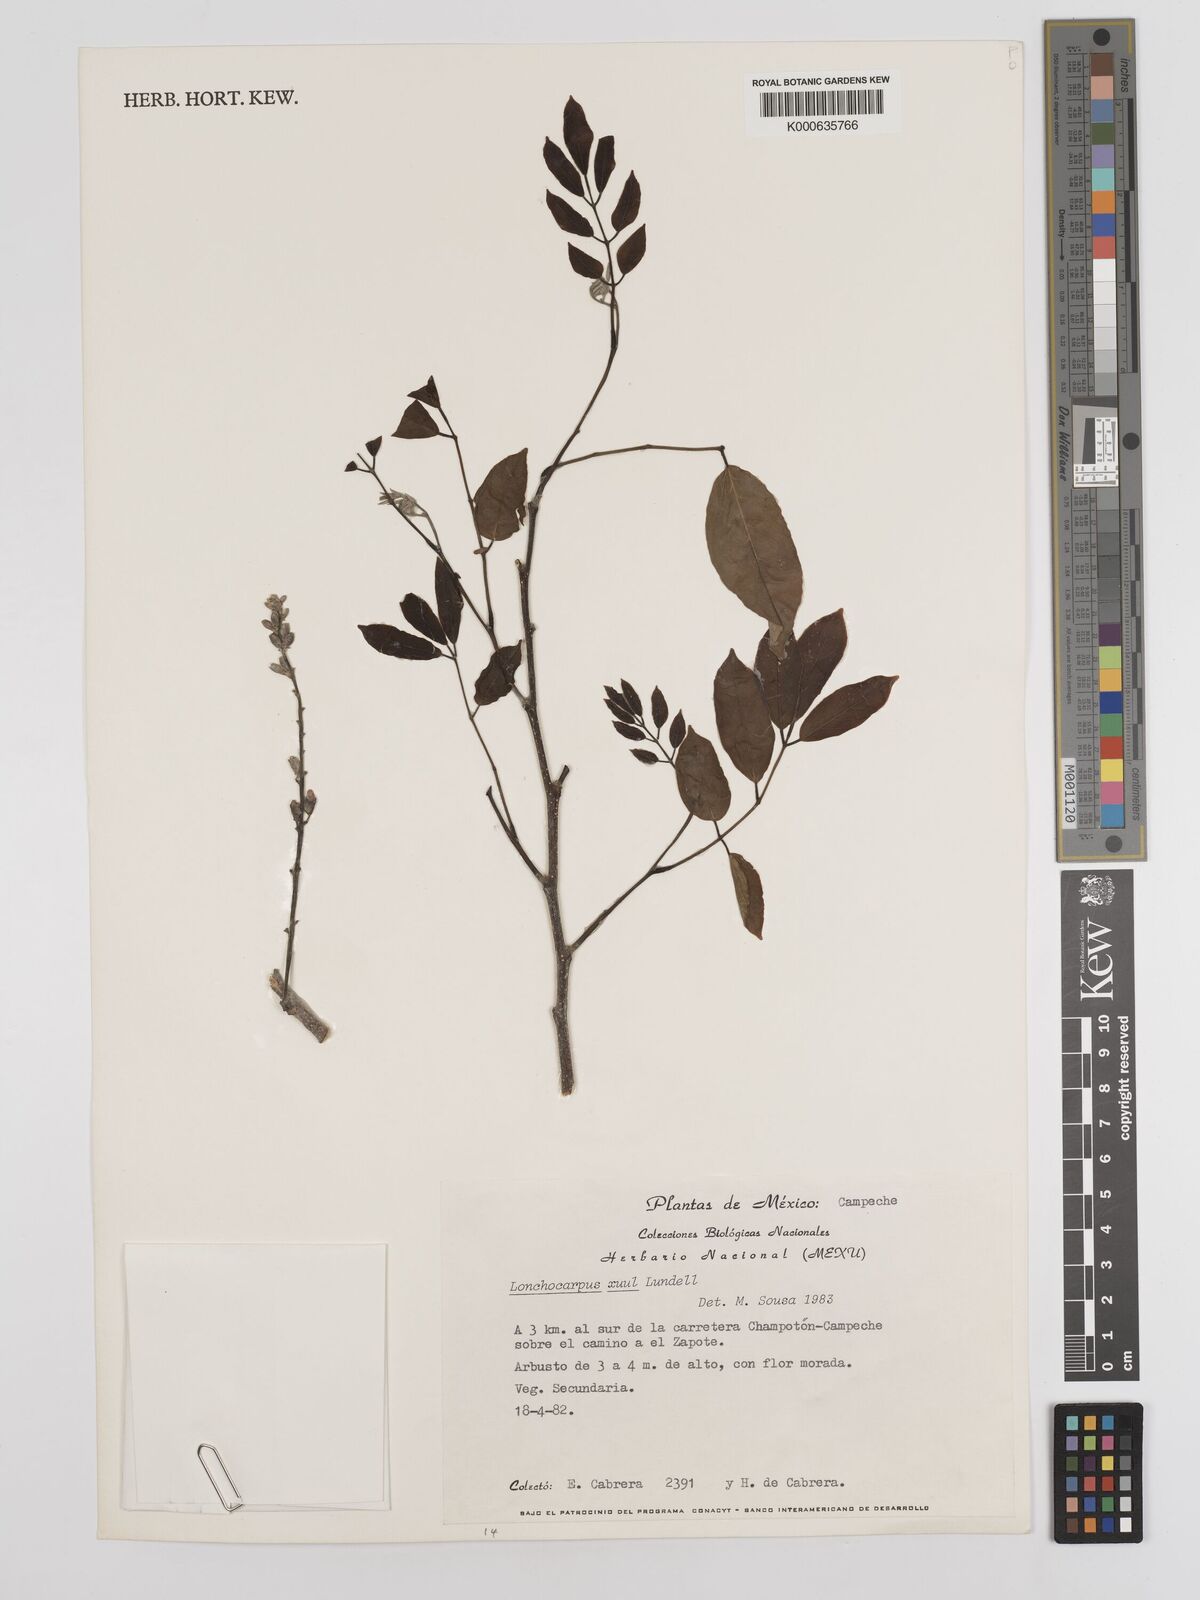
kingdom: Plantae
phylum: Tracheophyta
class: Magnoliopsida
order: Fabales
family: Fabaceae
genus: Lonchocarpus
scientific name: Lonchocarpus guatemalensis
